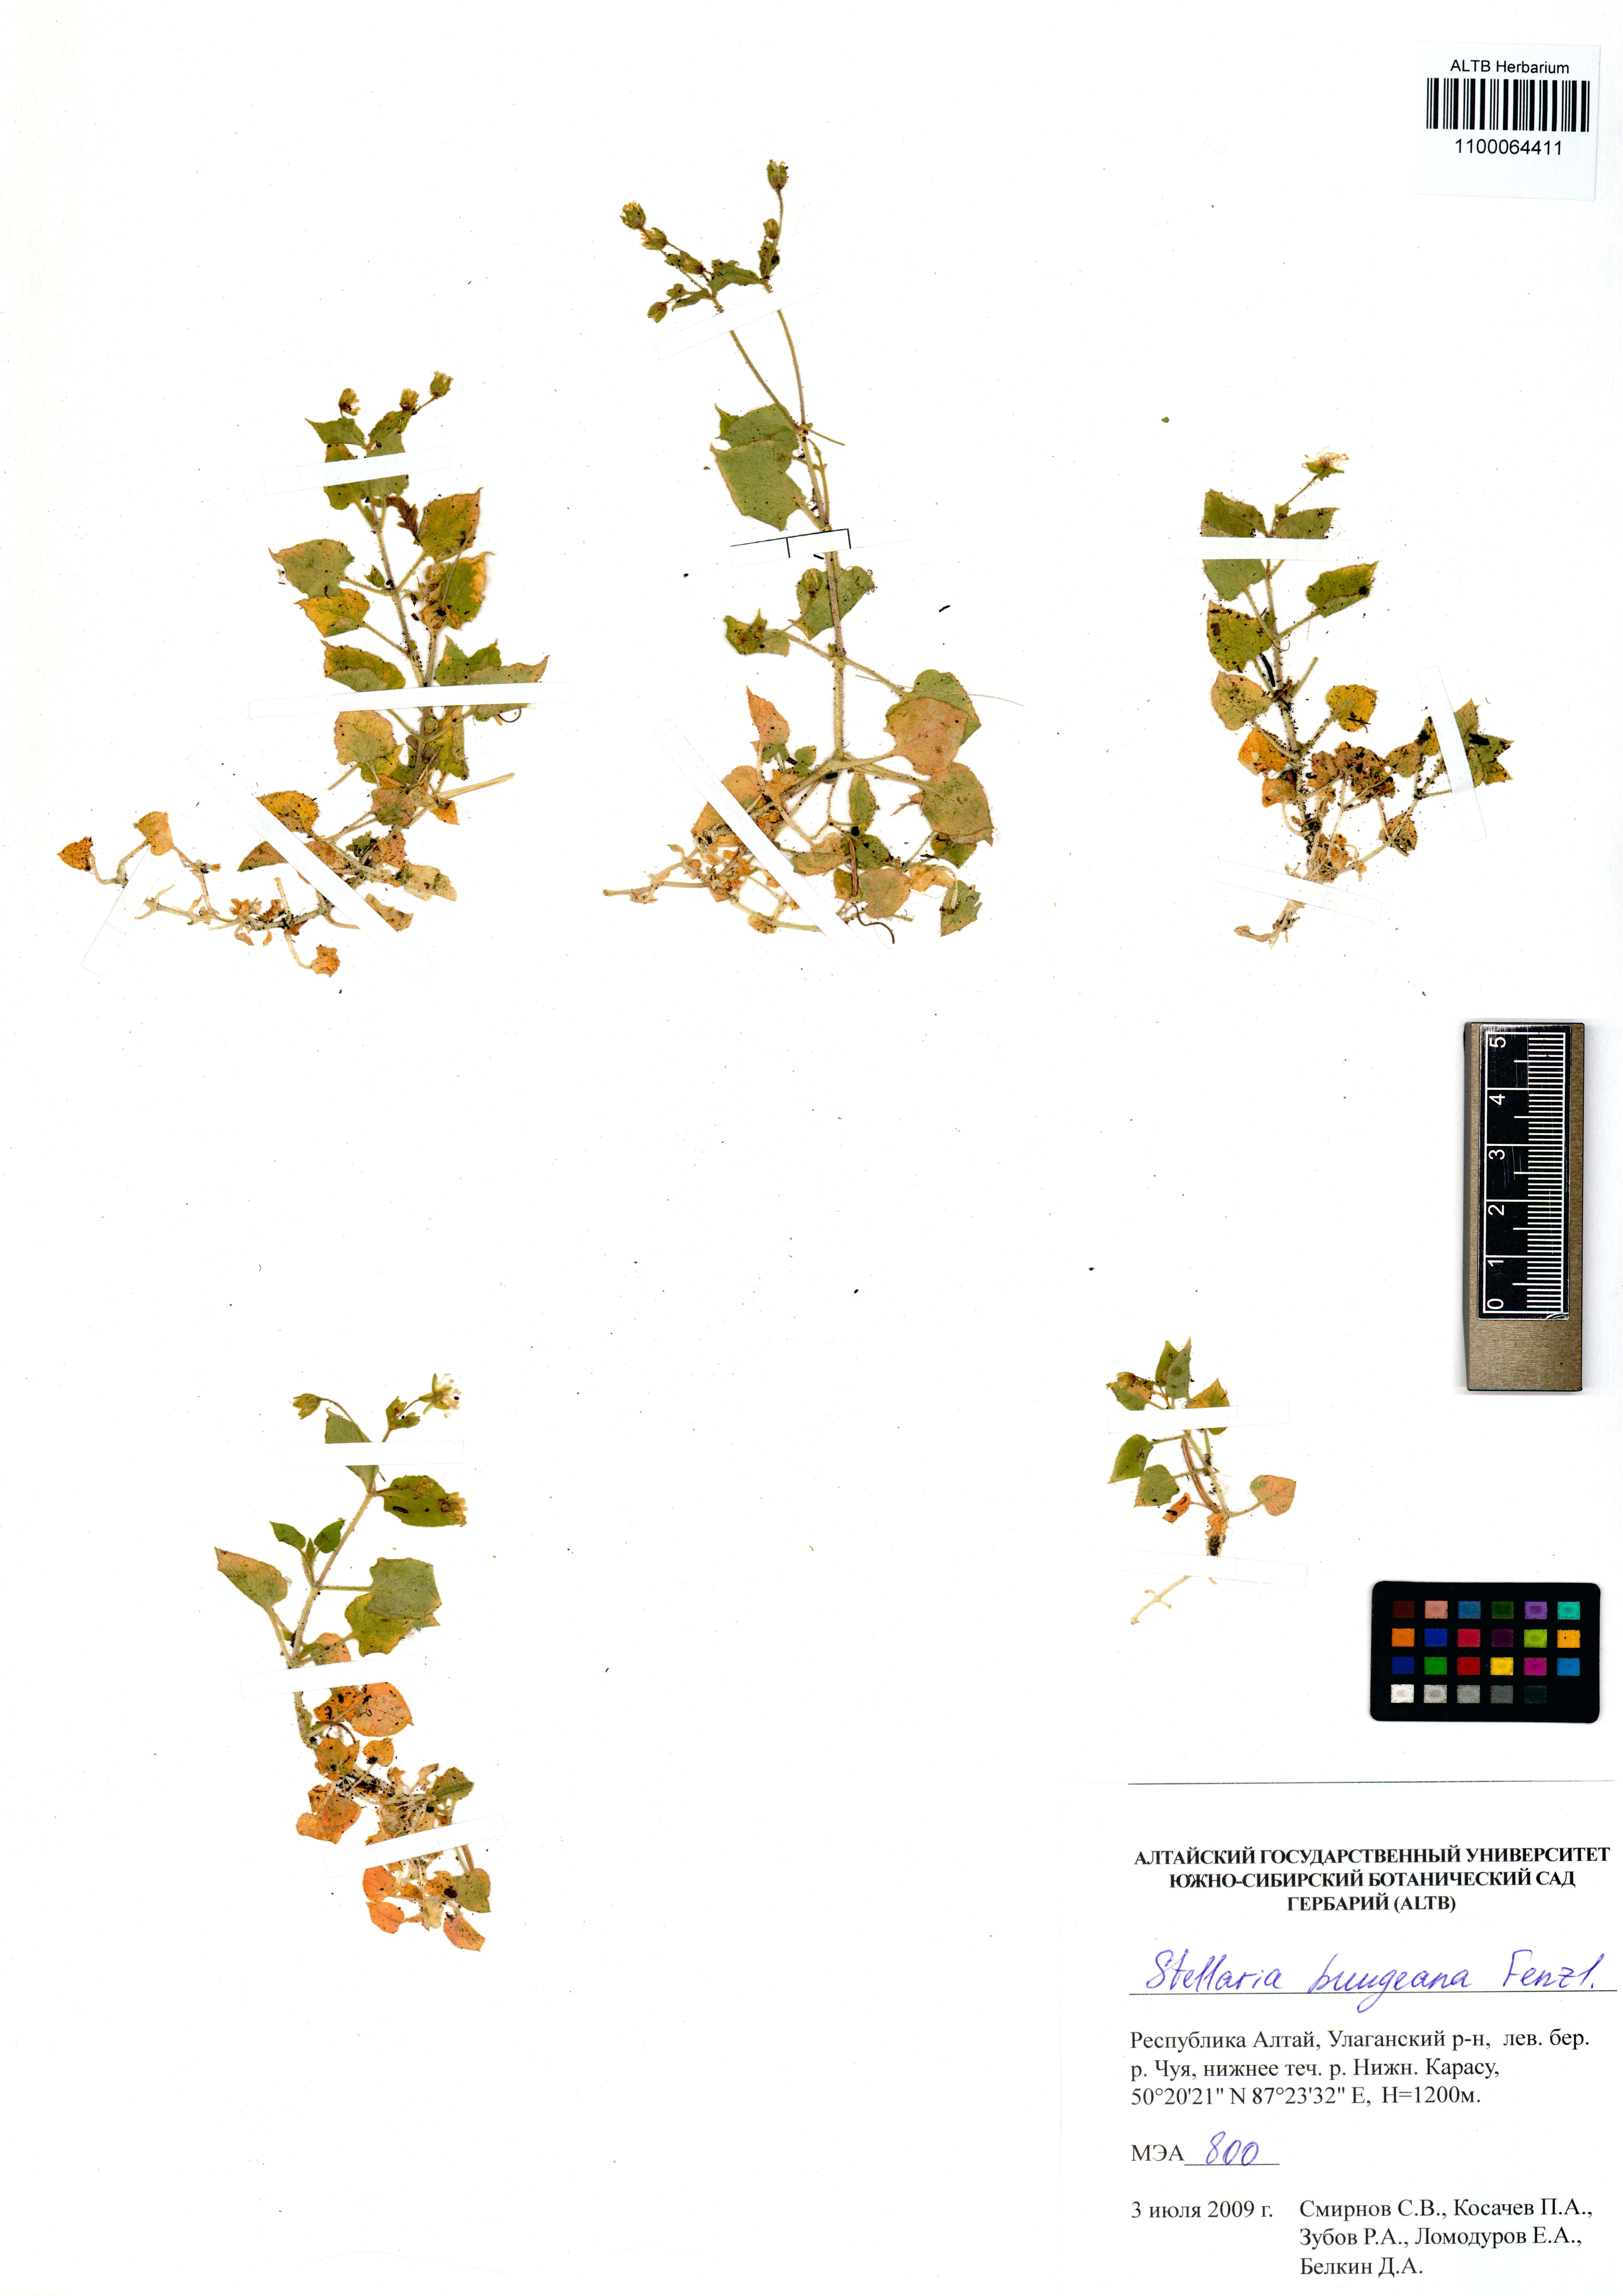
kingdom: Plantae
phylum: Tracheophyta
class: Magnoliopsida
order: Caryophyllales
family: Caryophyllaceae
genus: Stellaria
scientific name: Stellaria bungeana
